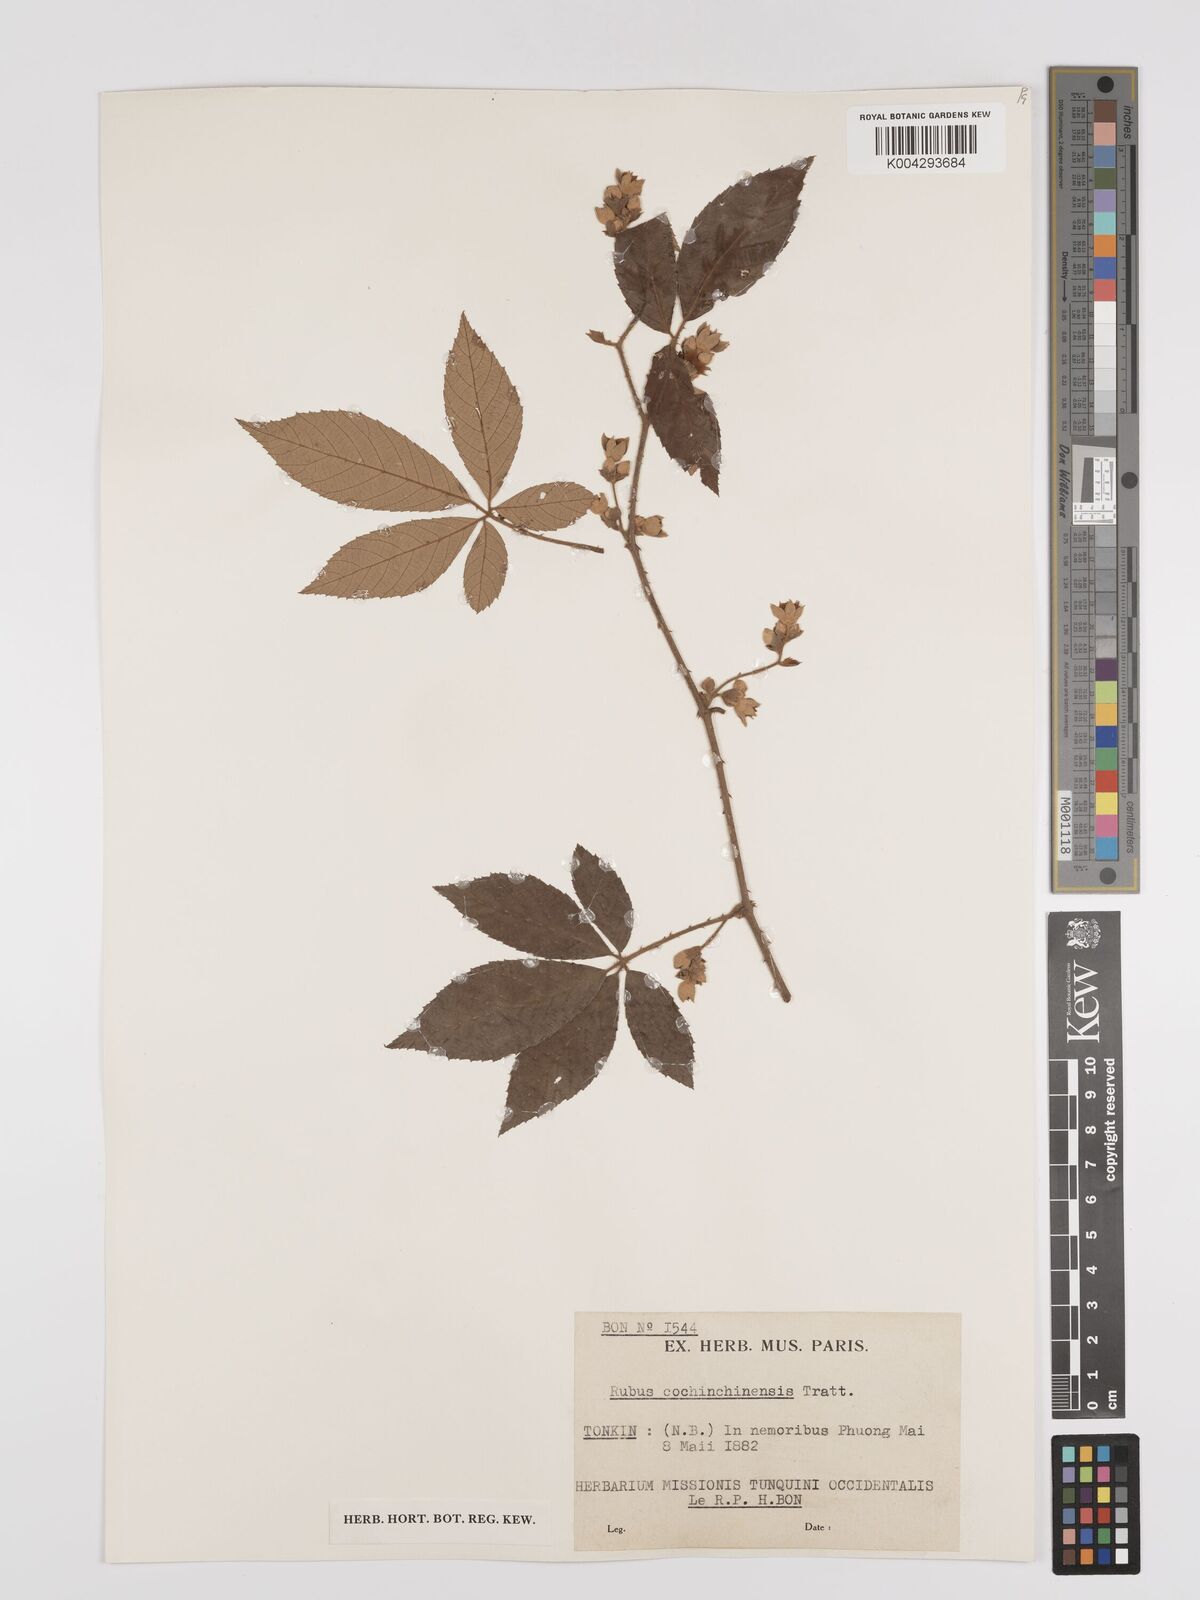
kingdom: Plantae
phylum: Tracheophyta
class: Magnoliopsida
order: Rosales
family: Rosaceae
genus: Rubus
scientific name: Rubus cochinchinensis
